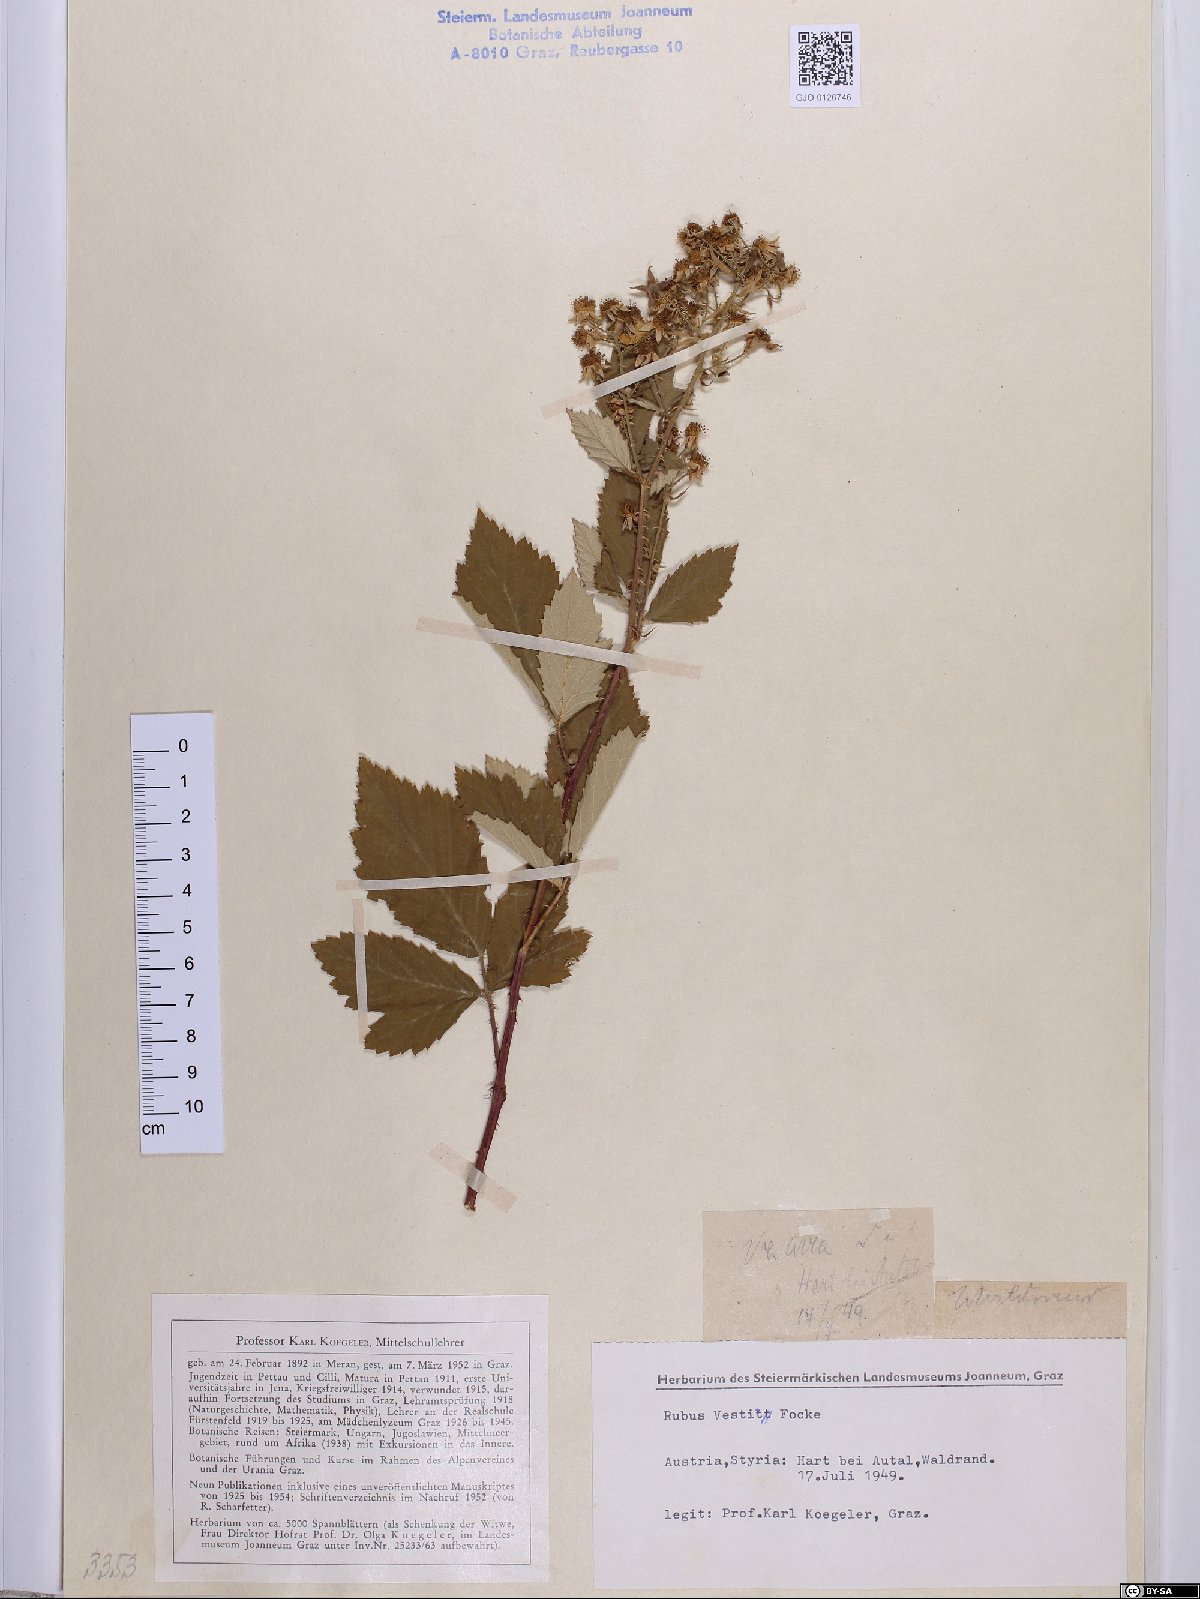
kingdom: Plantae
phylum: Tracheophyta
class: Magnoliopsida
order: Rosales
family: Rosaceae
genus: Rubus
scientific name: Rubus constrictus
